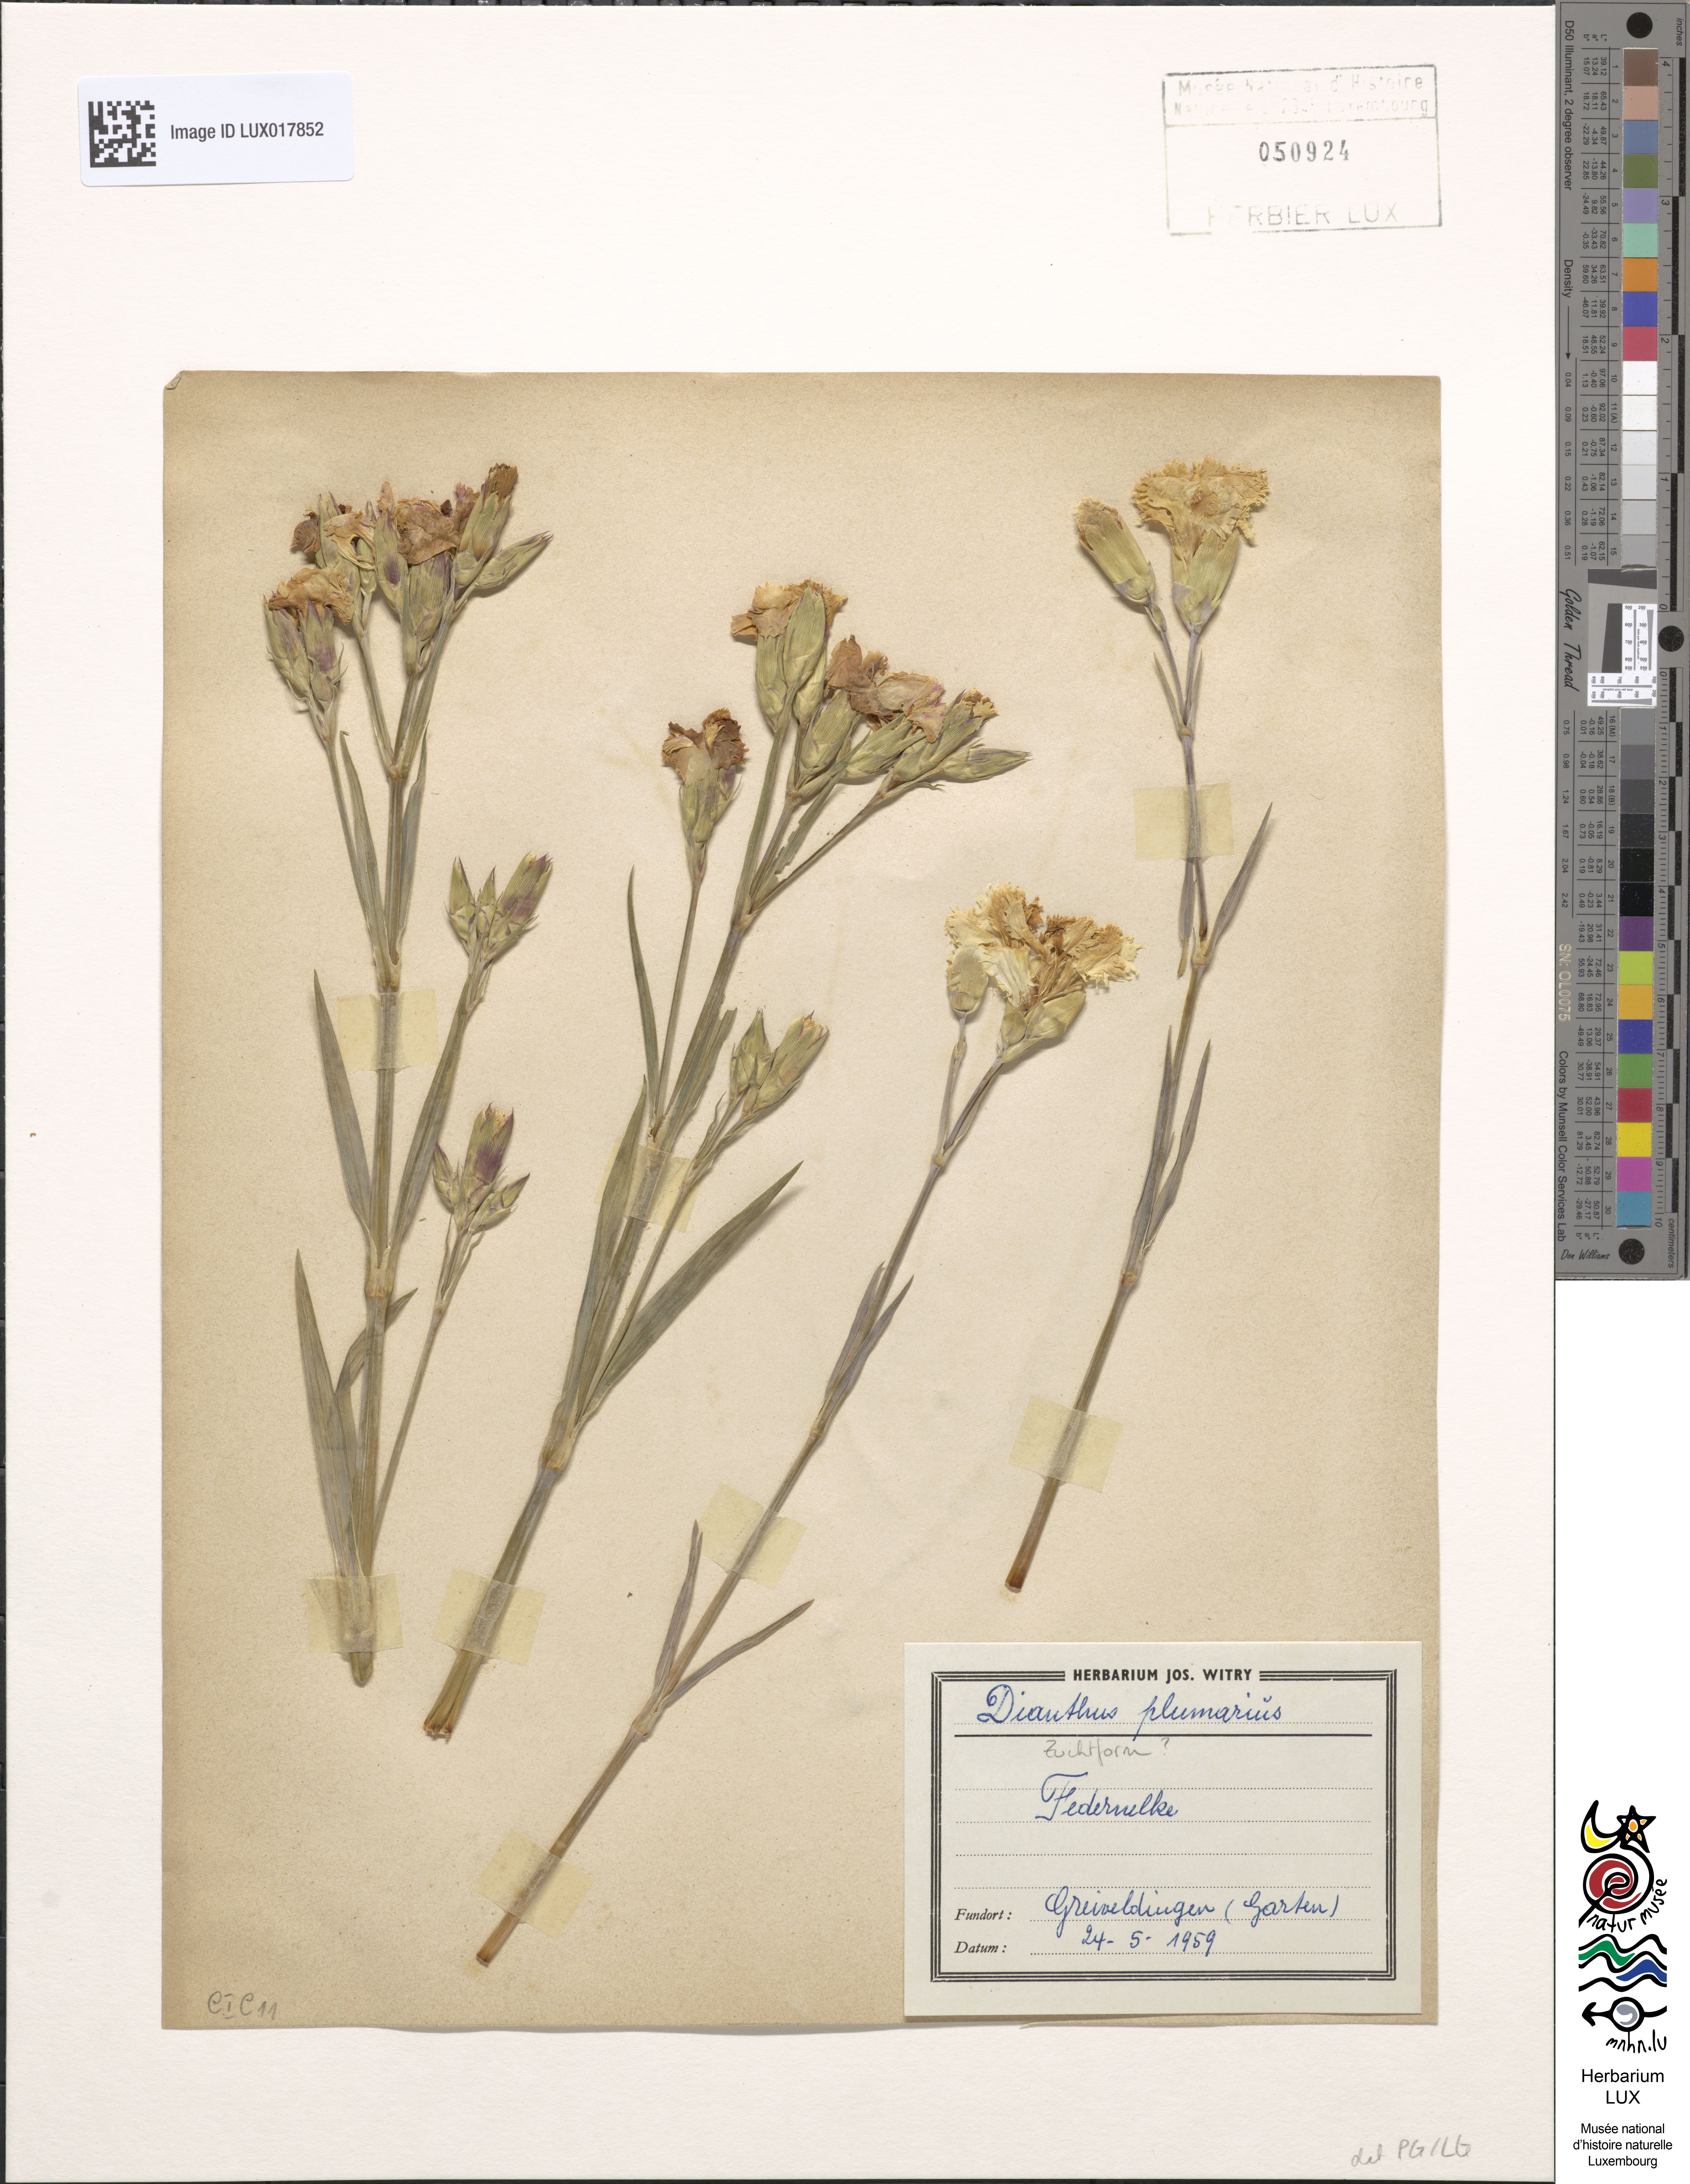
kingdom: Plantae
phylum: Tracheophyta
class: Magnoliopsida
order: Caryophyllales
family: Caryophyllaceae
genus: Dianthus
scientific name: Dianthus plumarius
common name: Pink
